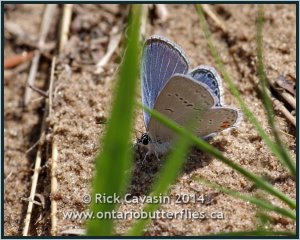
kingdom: Animalia
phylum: Arthropoda
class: Insecta
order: Lepidoptera
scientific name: Lepidoptera
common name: Butterflies
